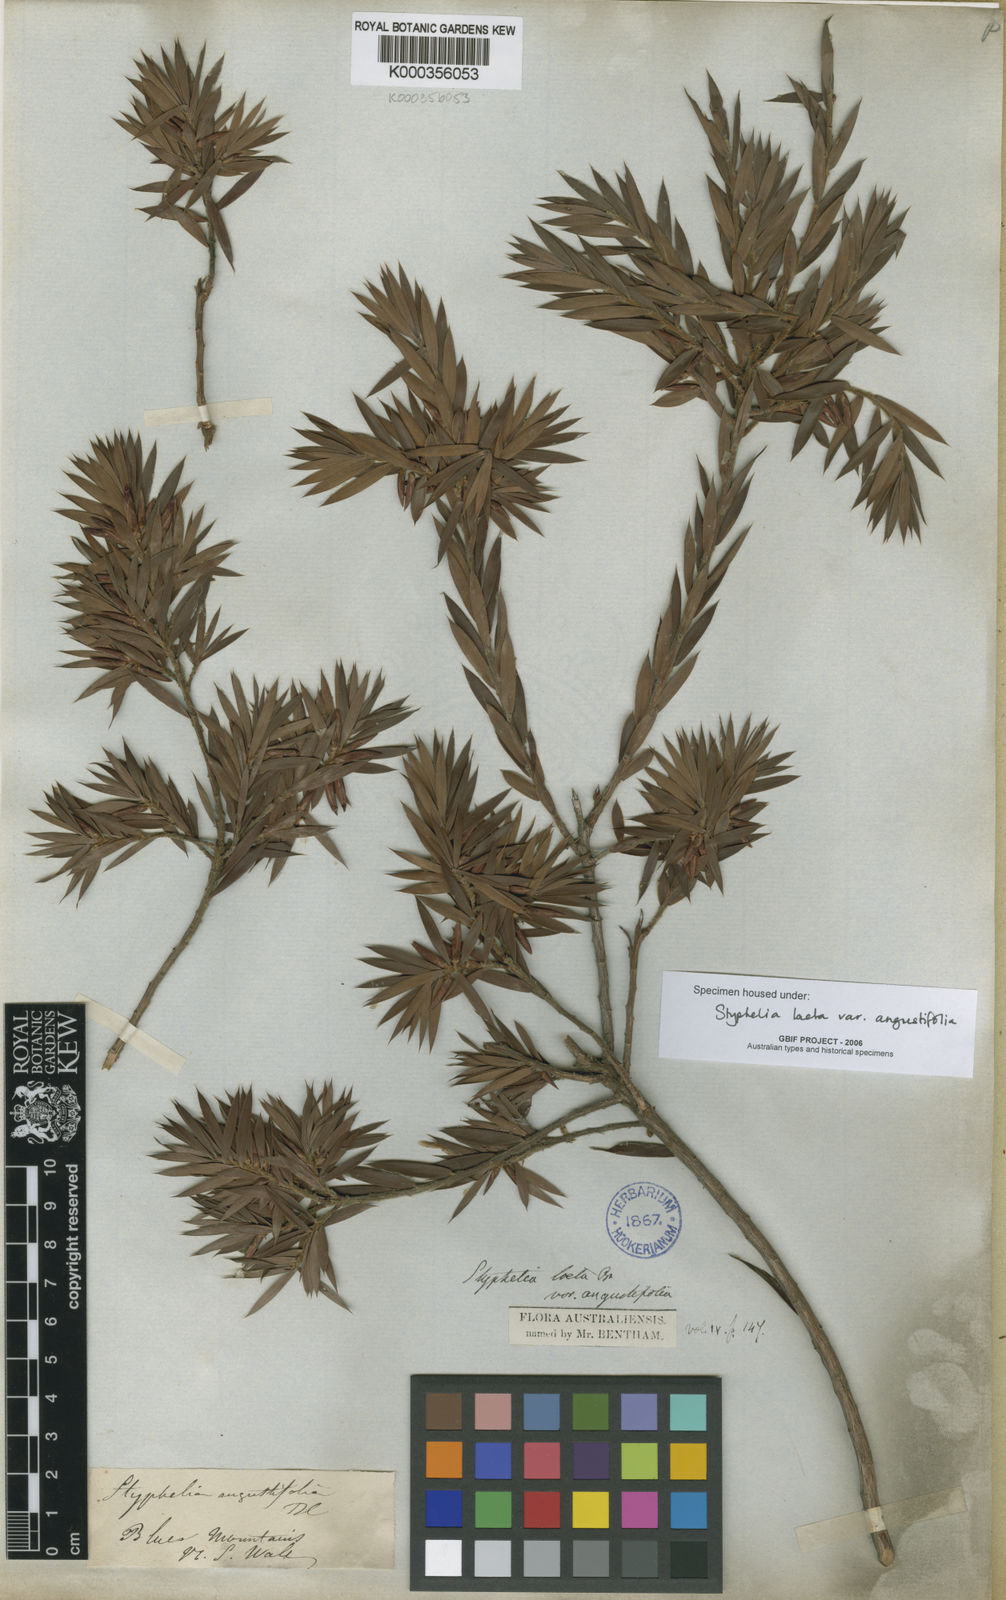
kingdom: Plantae
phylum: Tracheophyta
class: Magnoliopsida
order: Ericales
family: Ericaceae
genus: Styphelia
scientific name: Styphelia
